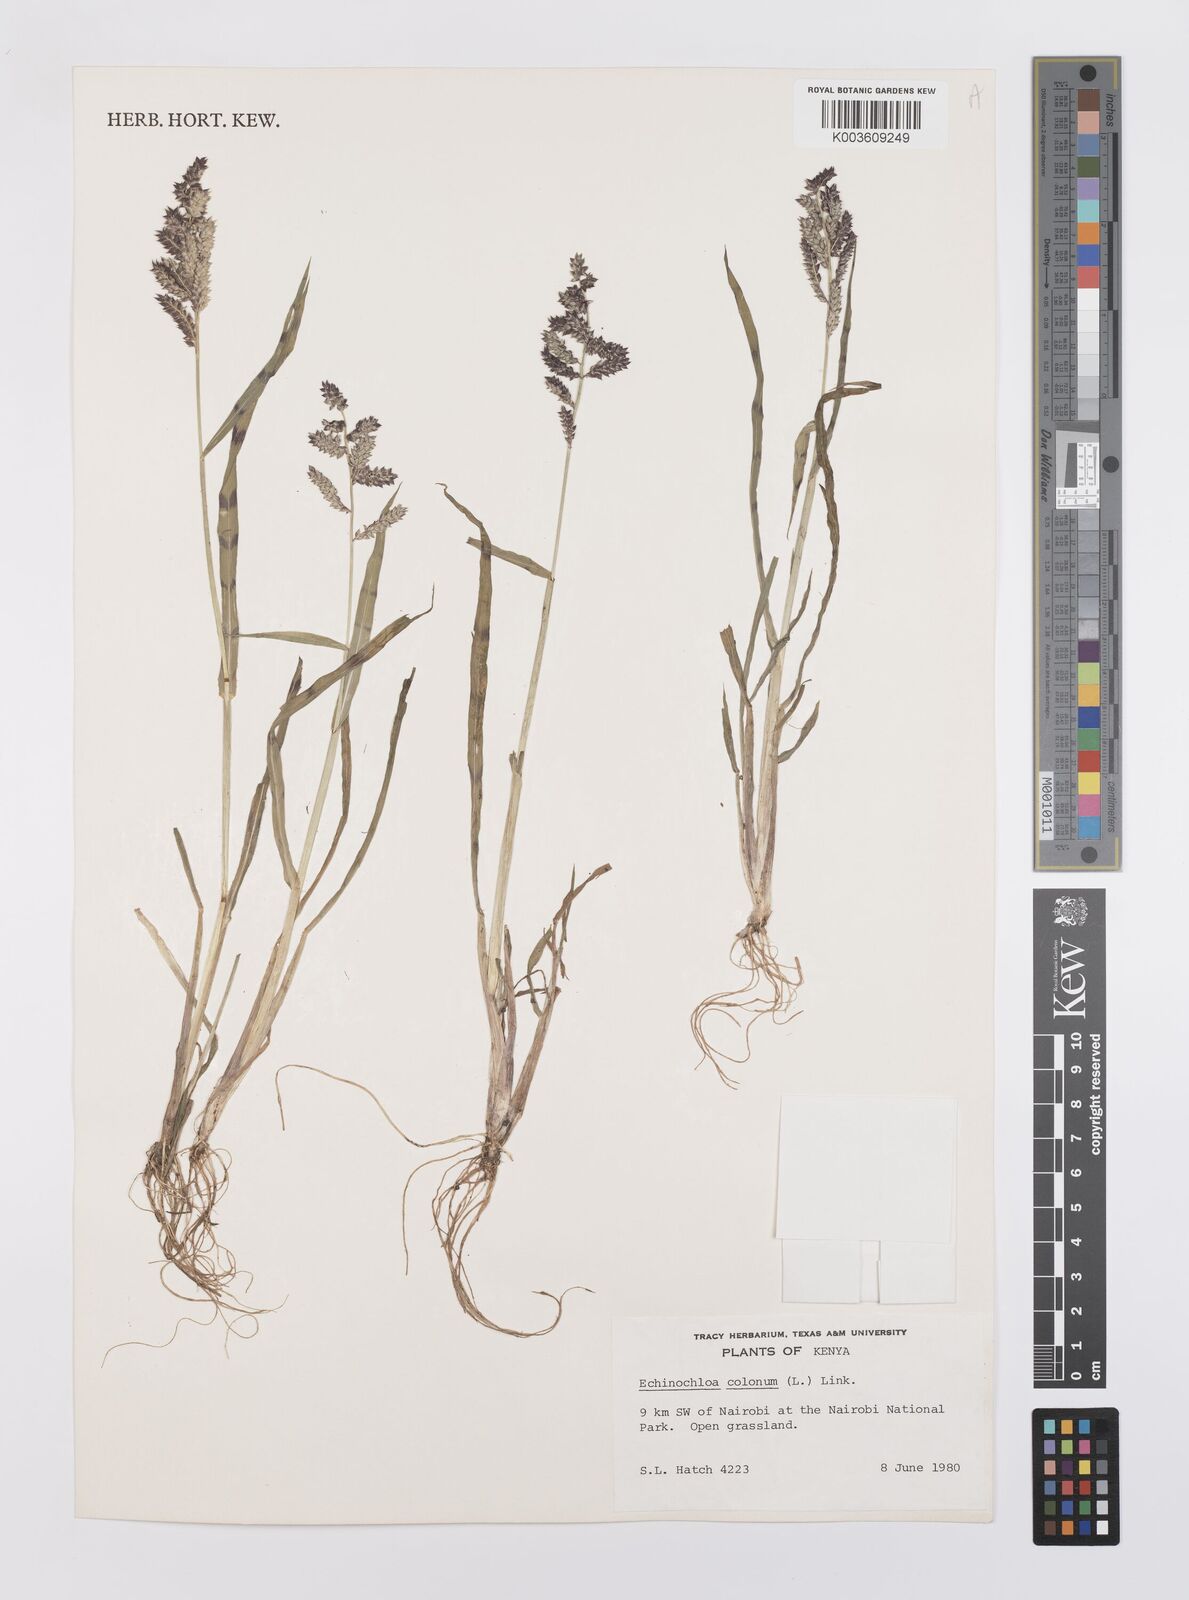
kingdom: Plantae
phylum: Tracheophyta
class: Liliopsida
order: Poales
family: Poaceae
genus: Echinochloa
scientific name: Echinochloa colonum
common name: Jungle rice
